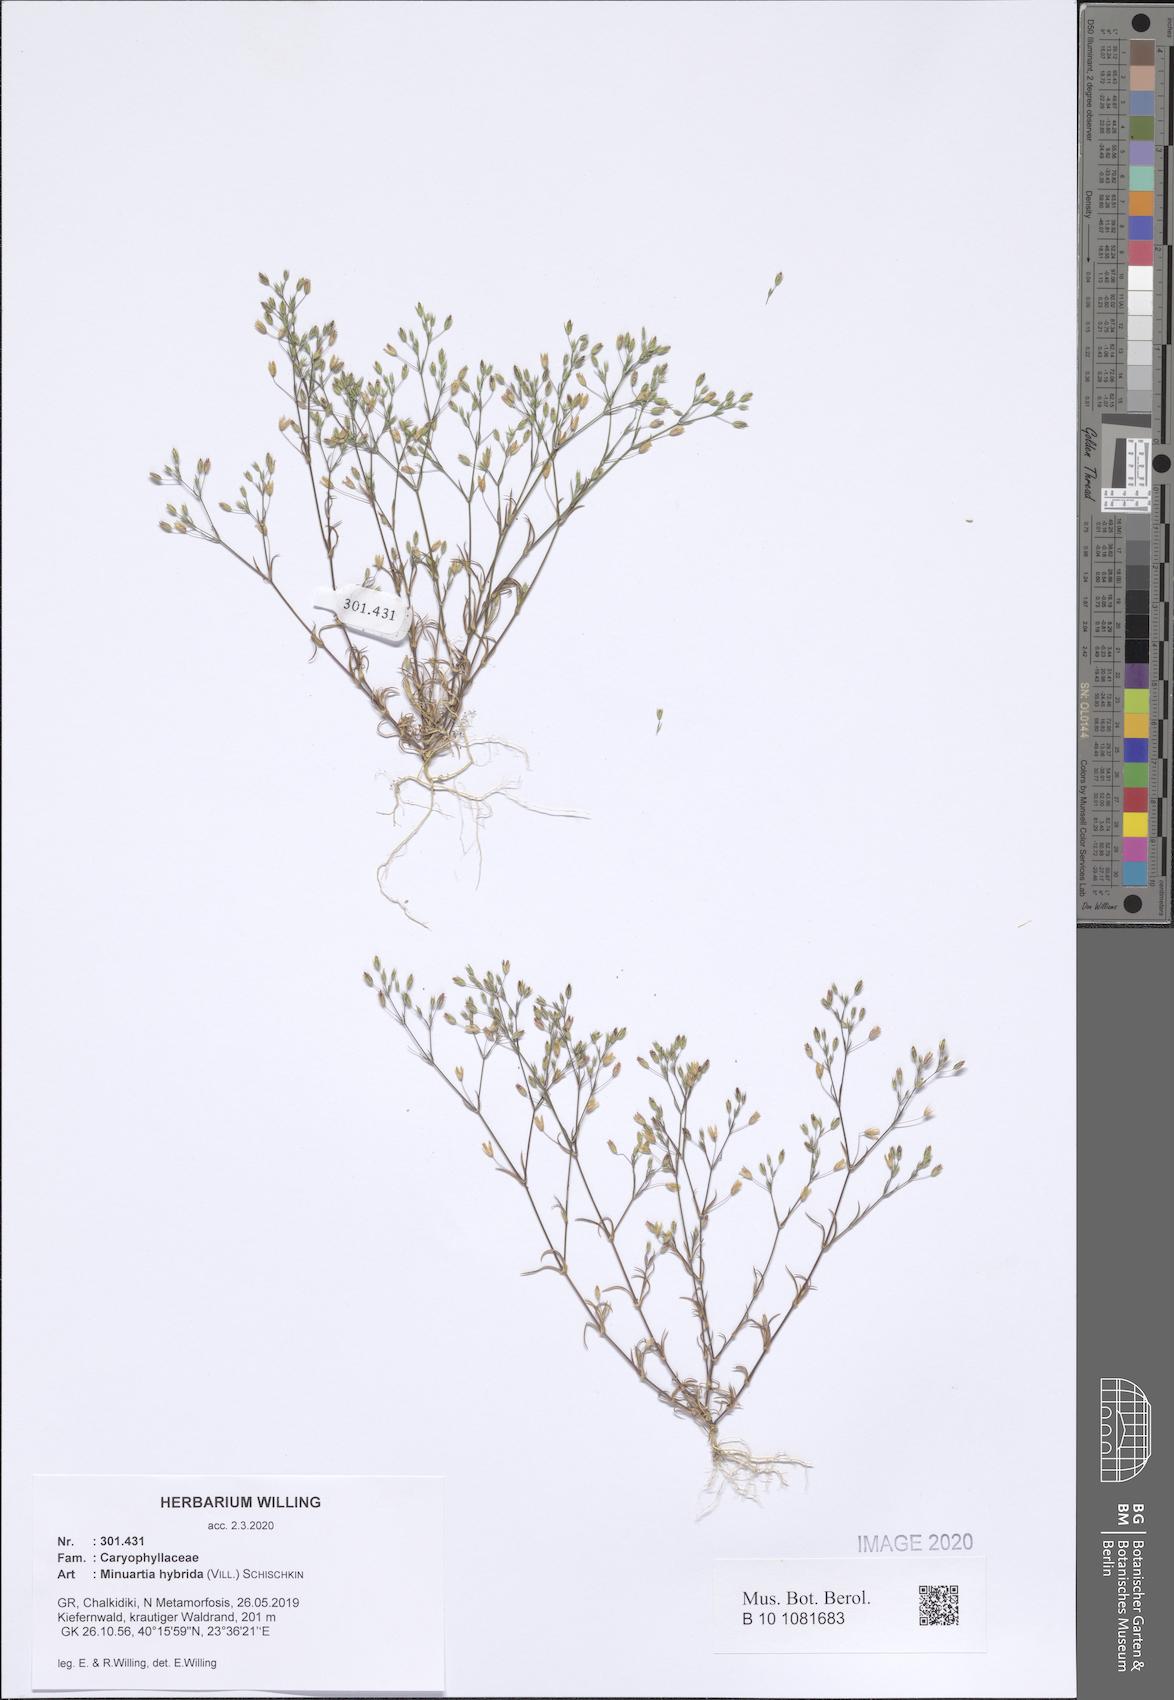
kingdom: Plantae
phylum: Tracheophyta
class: Magnoliopsida
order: Caryophyllales
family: Caryophyllaceae
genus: Sabulina
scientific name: Sabulina tenuifolia
